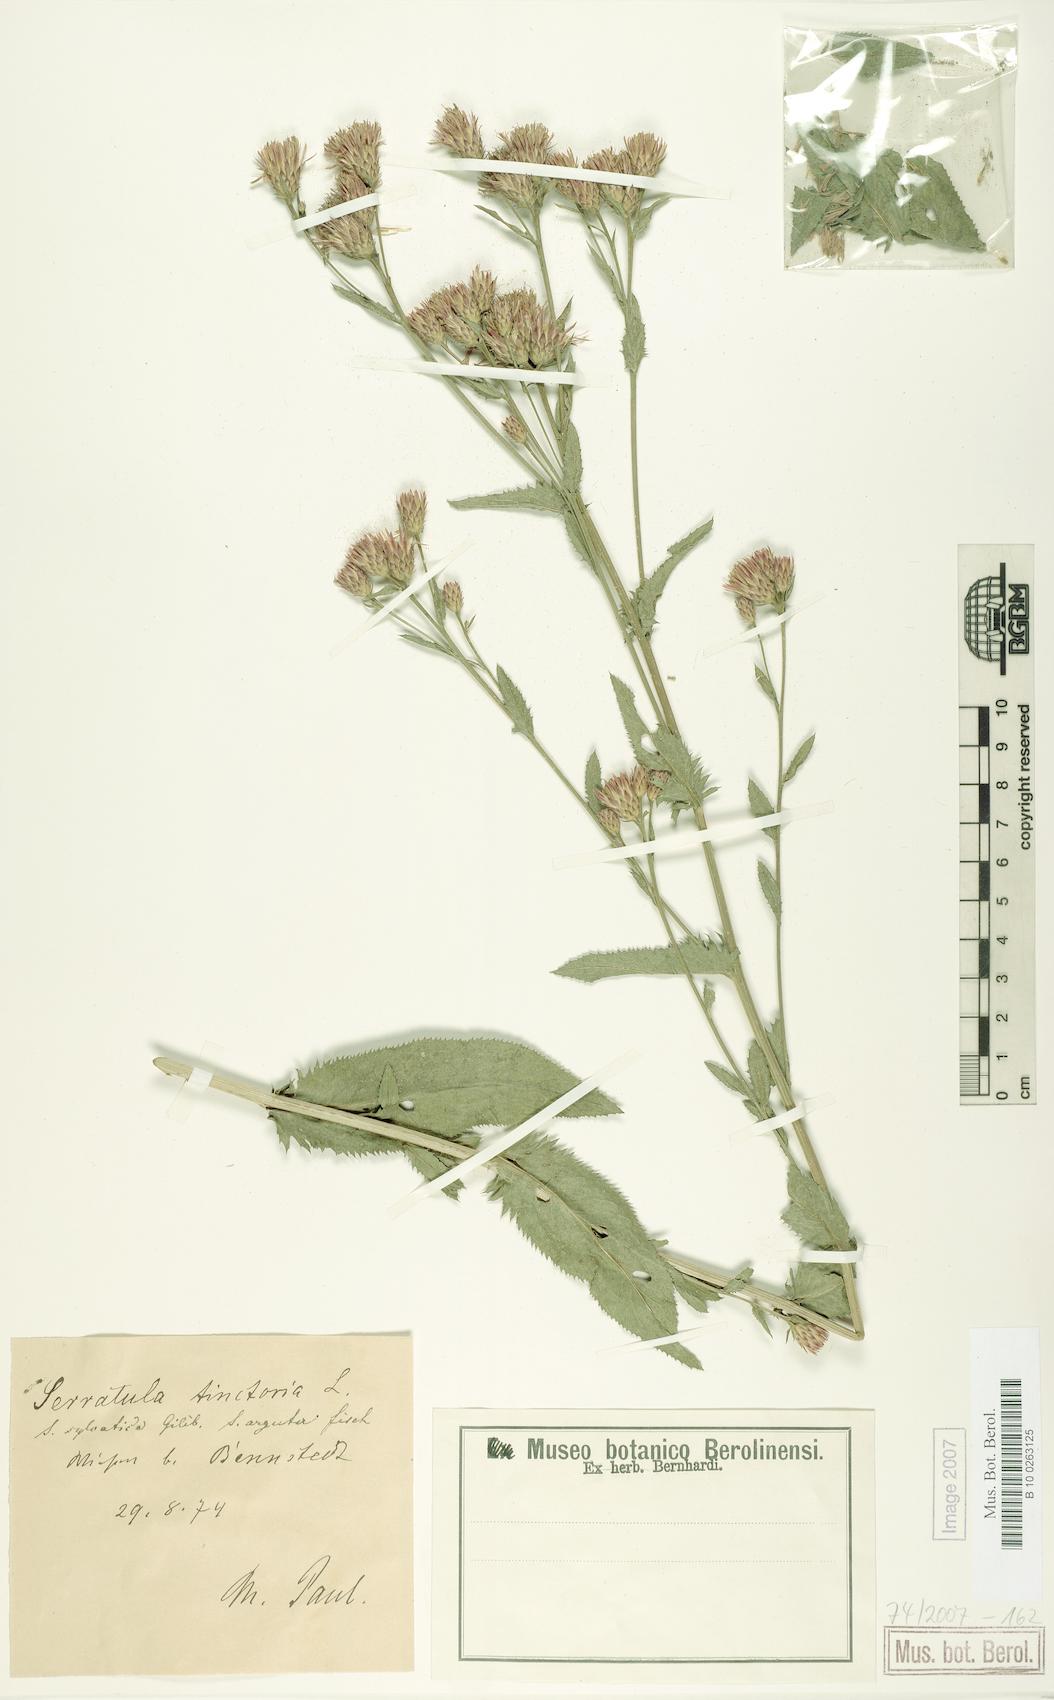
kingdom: Plantae
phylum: Tracheophyta
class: Magnoliopsida
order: Asterales
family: Asteraceae
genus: Serratula
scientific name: Serratula tinctoria
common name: Saw-wort
